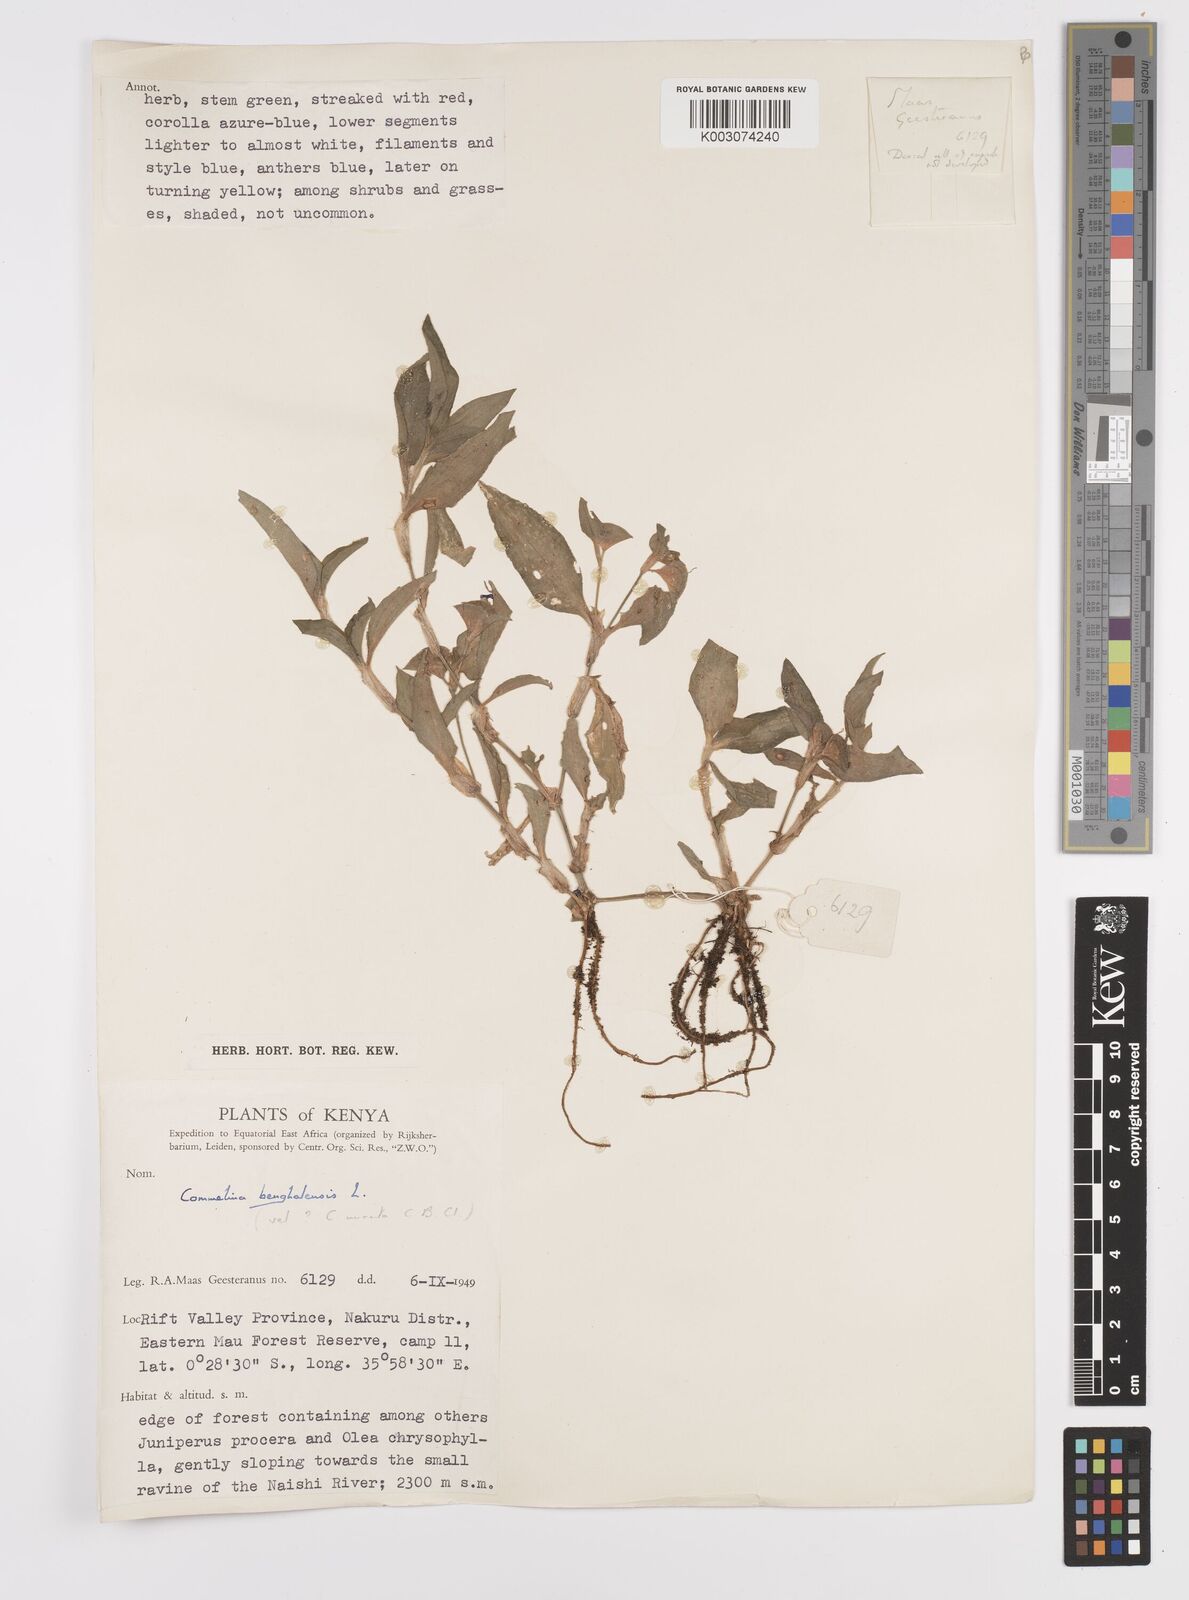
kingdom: Plantae
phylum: Tracheophyta
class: Liliopsida
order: Commelinales
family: Commelinaceae
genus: Commelina
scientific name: Commelina benghalensis
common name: Jio
